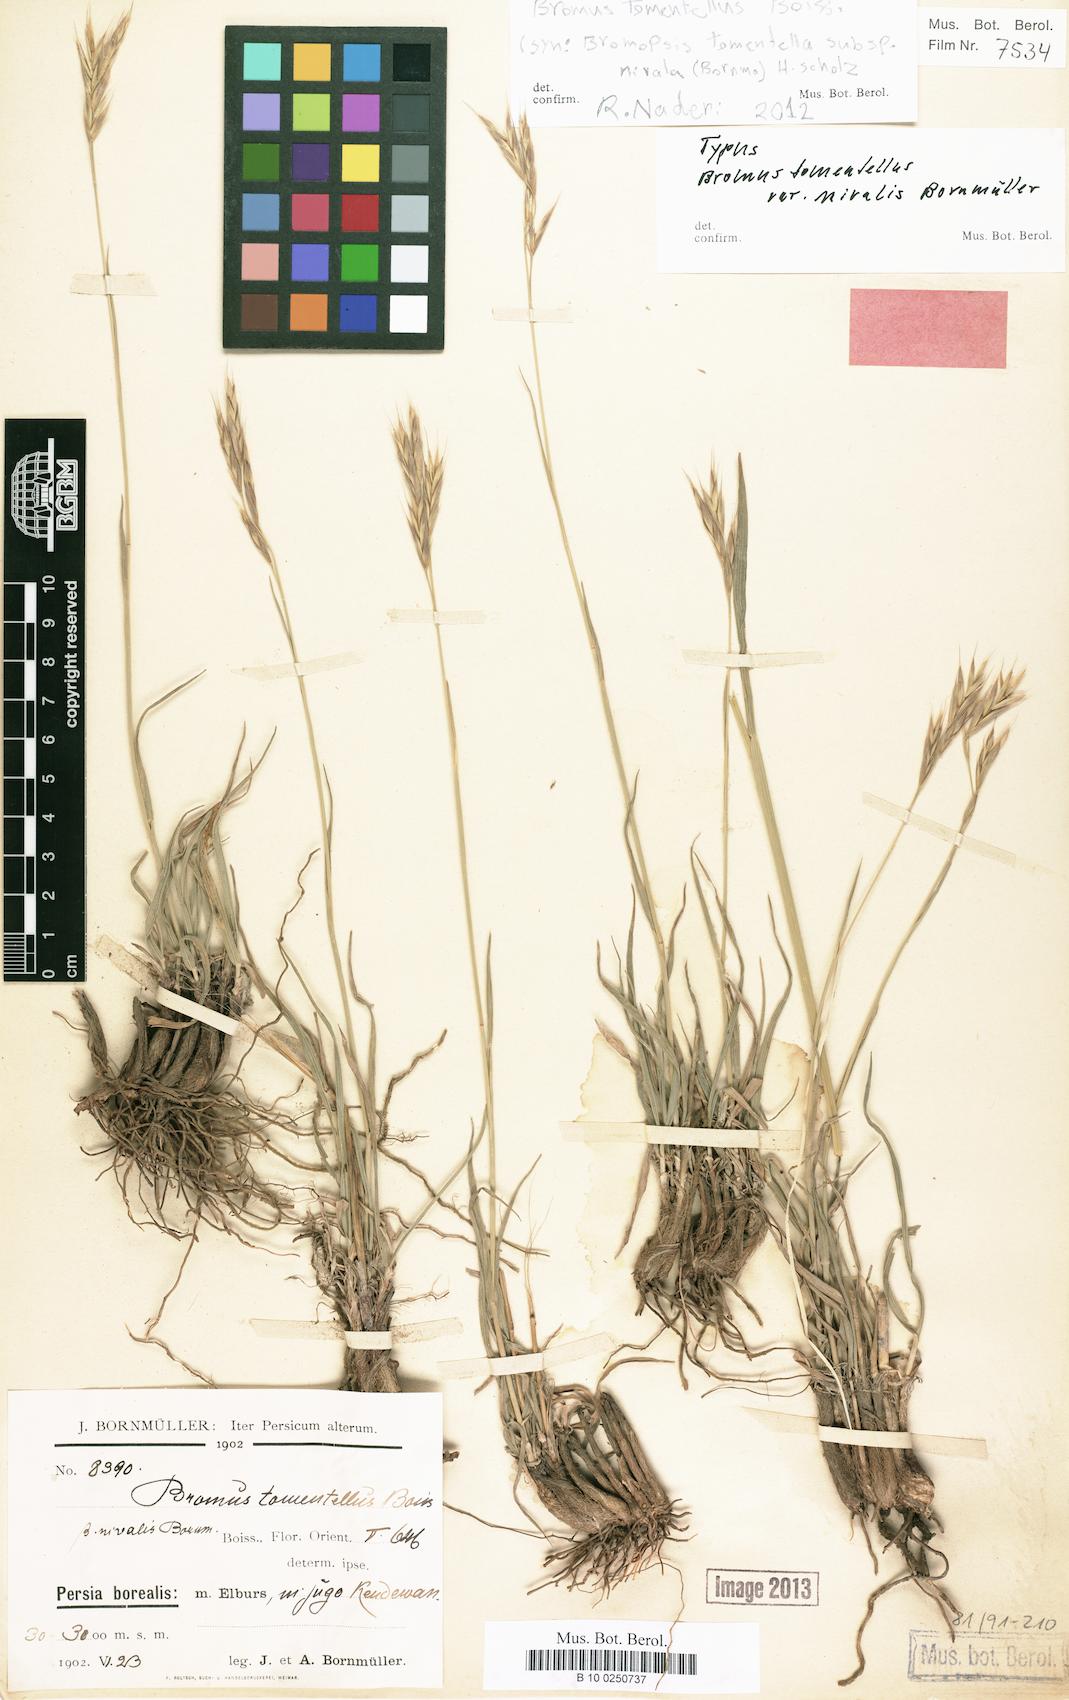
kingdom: Plantae
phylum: Tracheophyta
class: Liliopsida
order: Poales
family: Poaceae
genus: Bromus
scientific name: Bromus tomentellus
